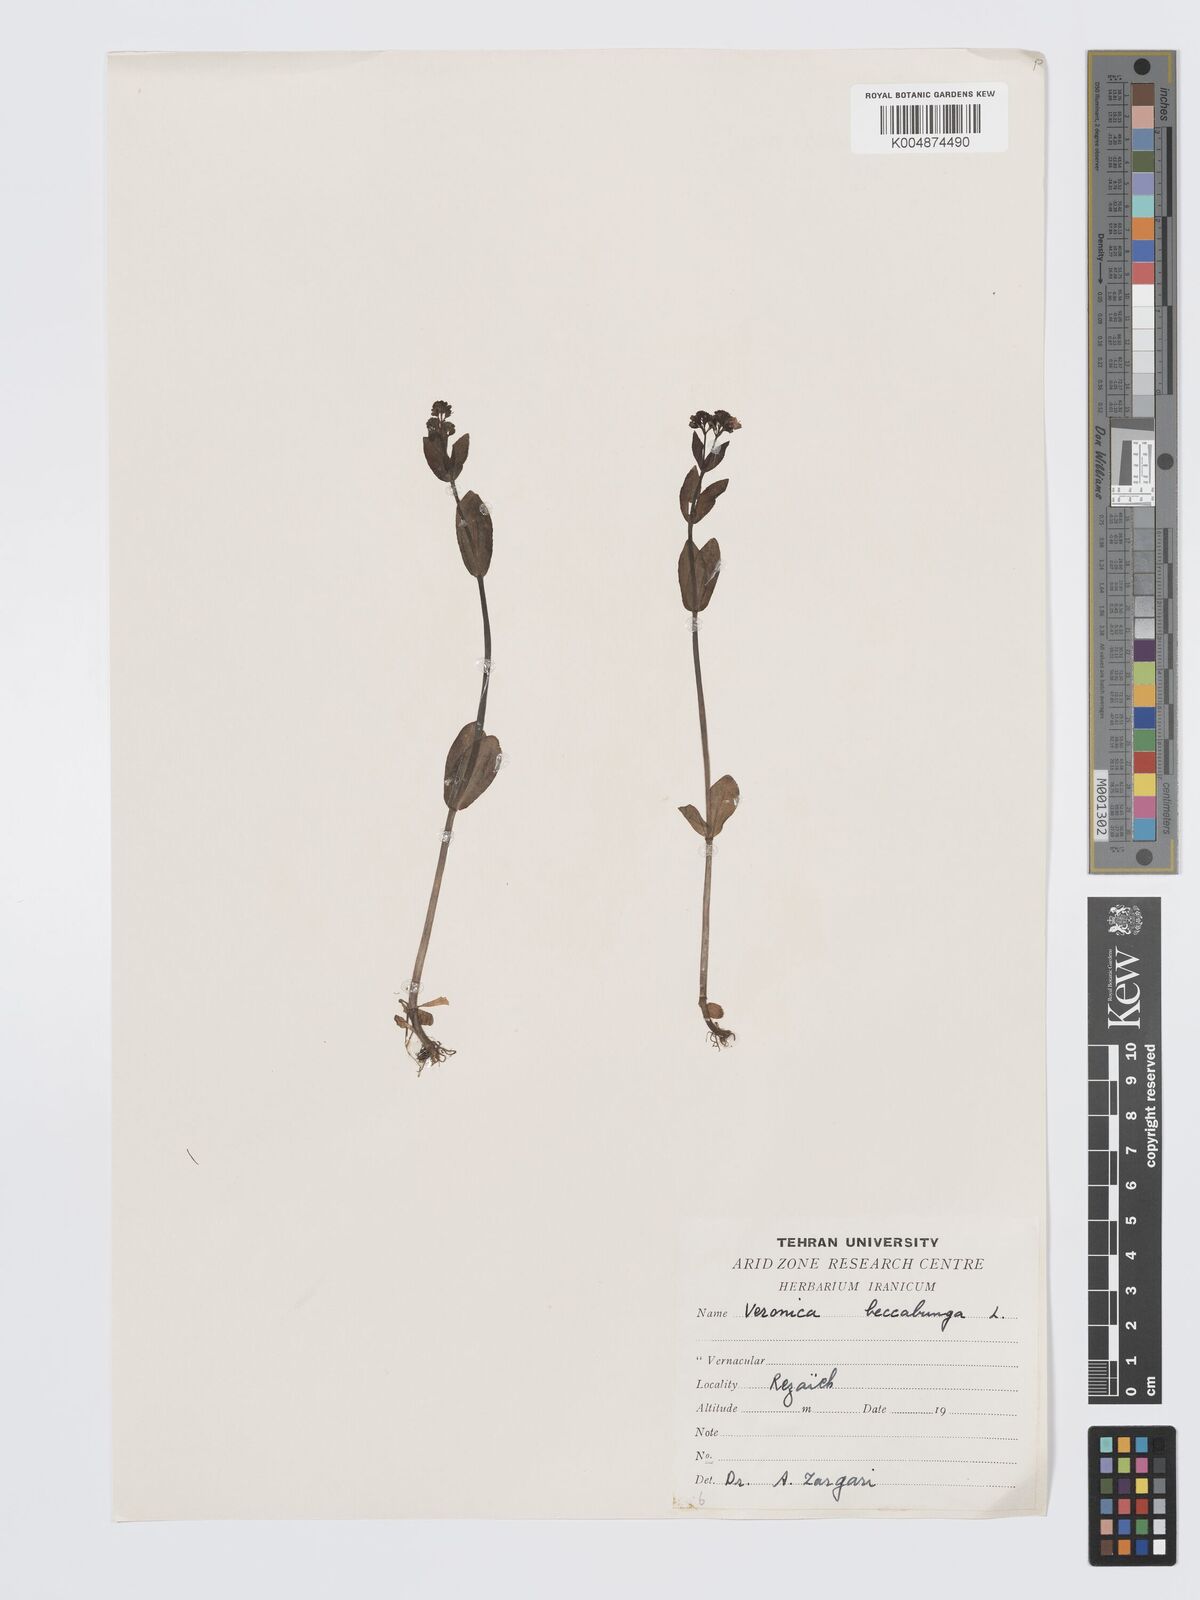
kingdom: Plantae
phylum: Tracheophyta
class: Magnoliopsida
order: Lamiales
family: Plantaginaceae
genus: Veronica
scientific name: Veronica oxycarpa
